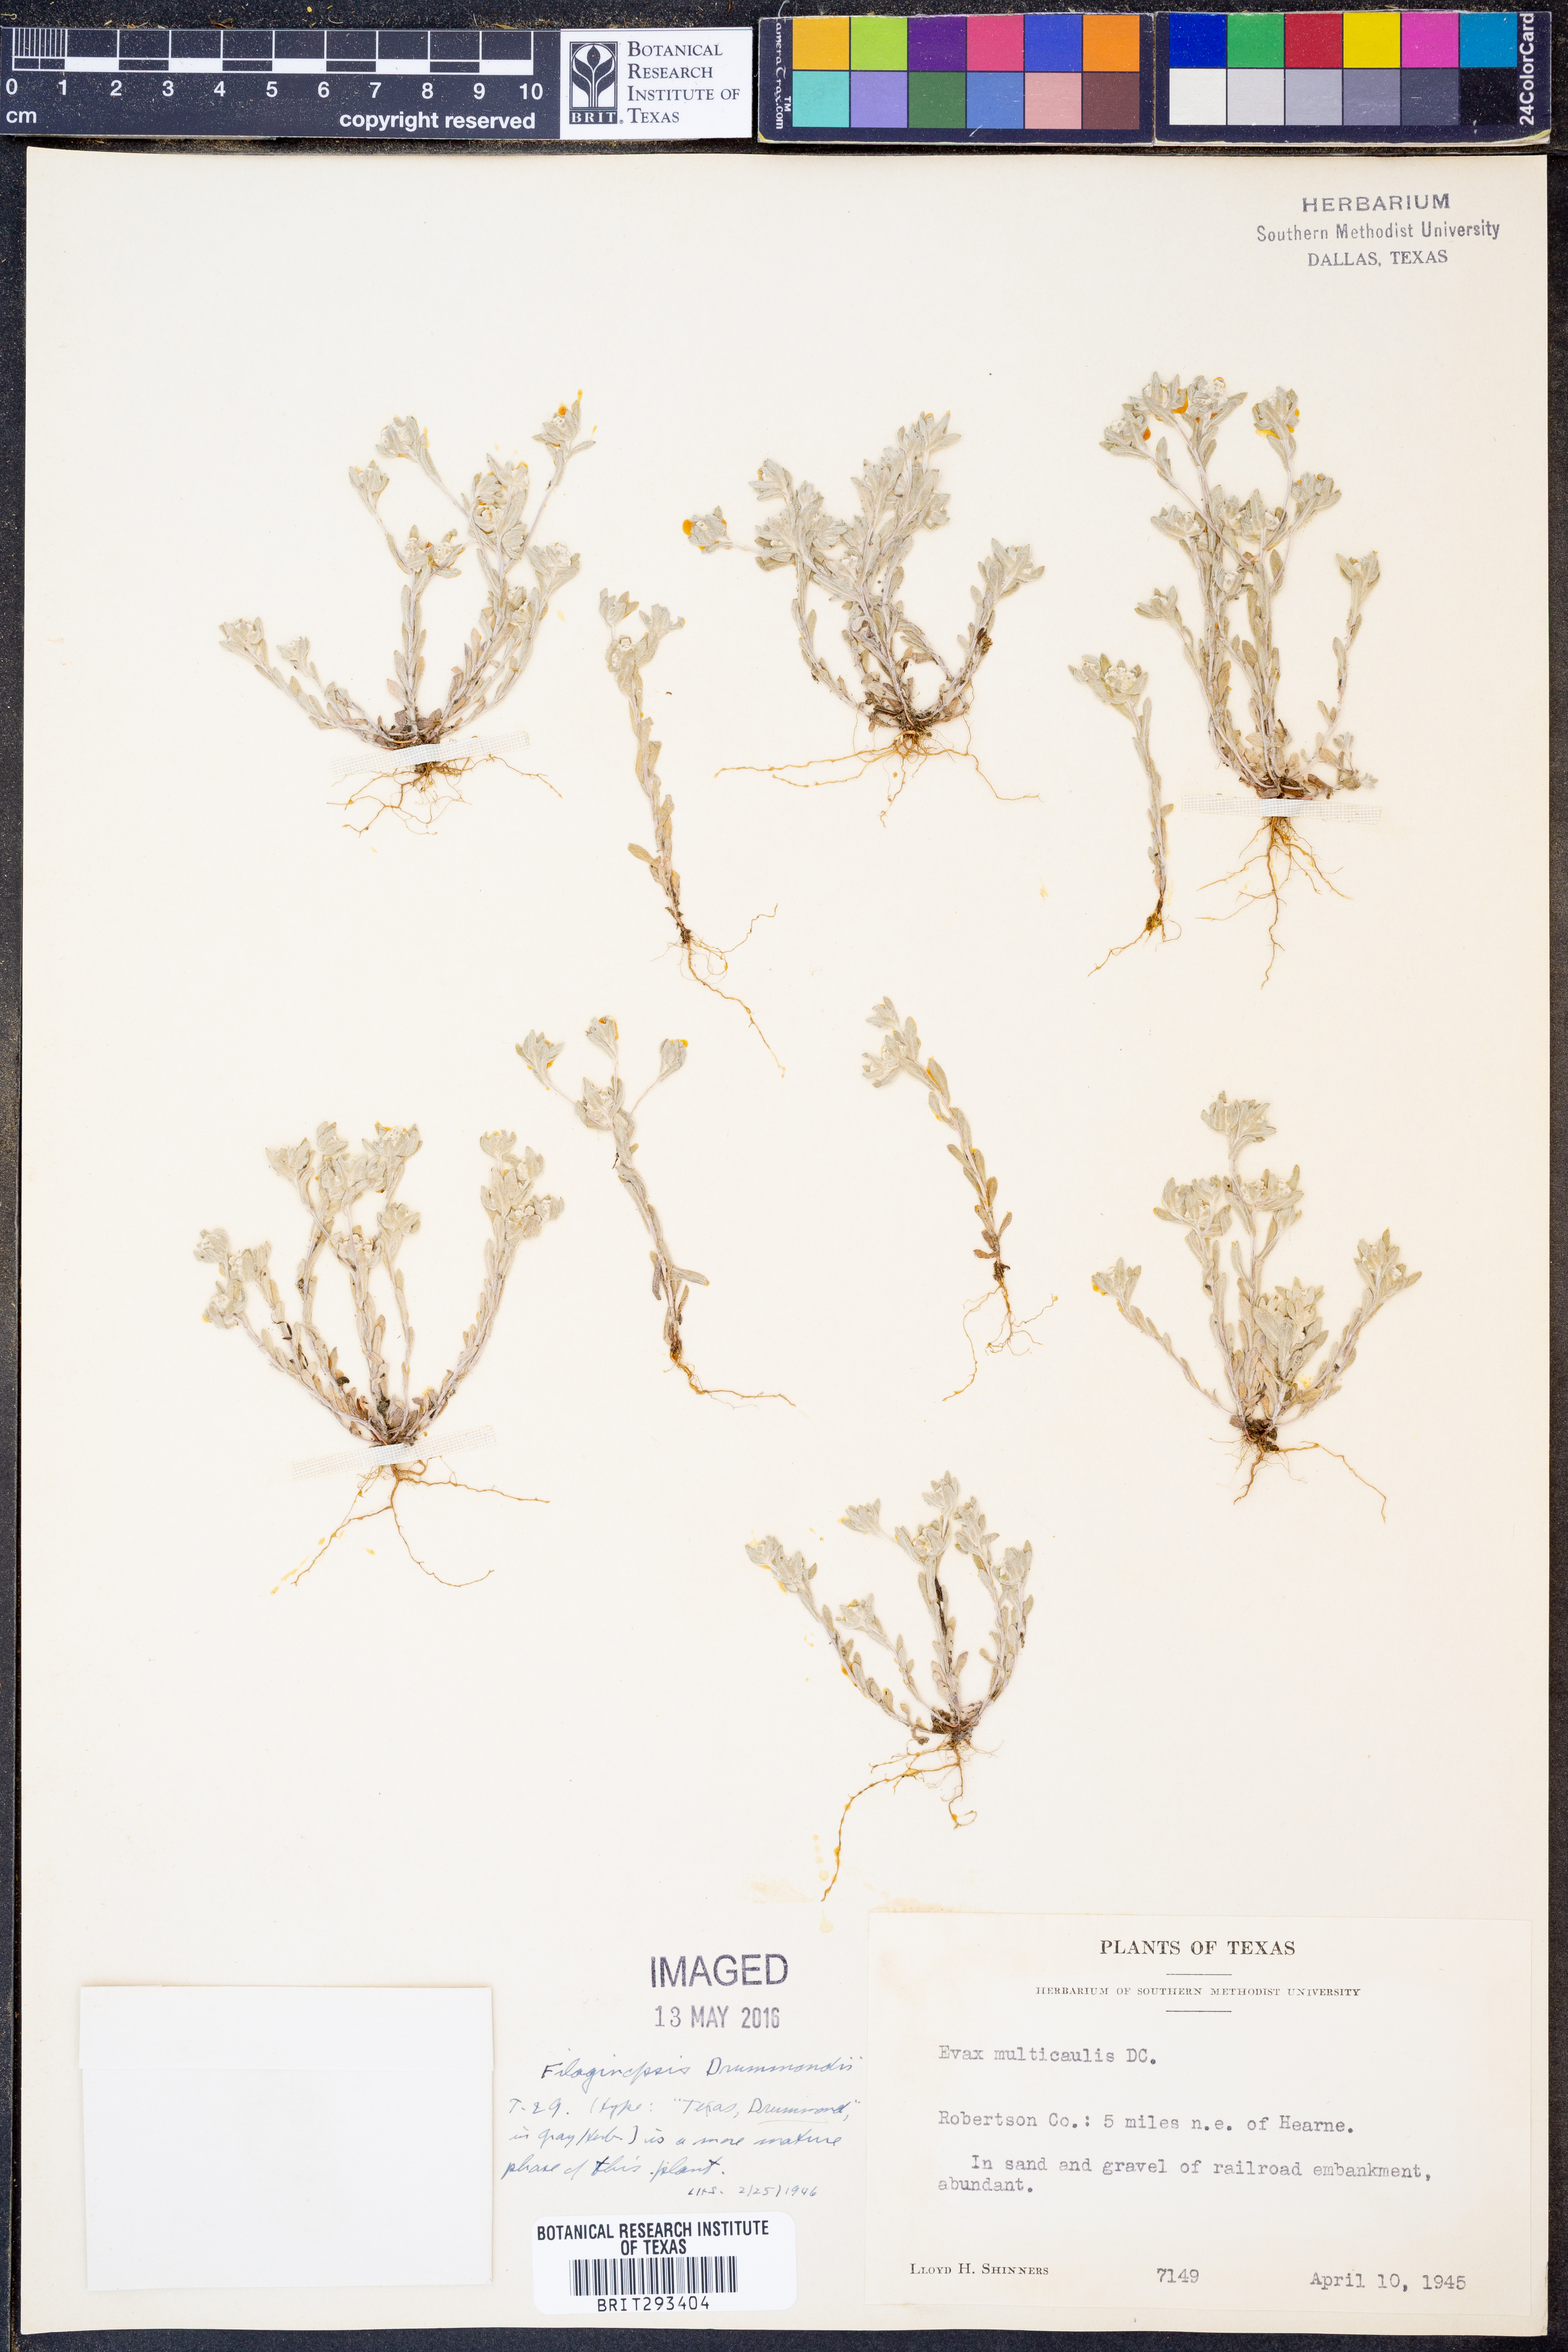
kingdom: Plantae
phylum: Tracheophyta
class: Magnoliopsida
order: Asterales
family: Asteraceae
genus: Diaperia
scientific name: Diaperia verna
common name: Many-stem rabbit-tobacco
